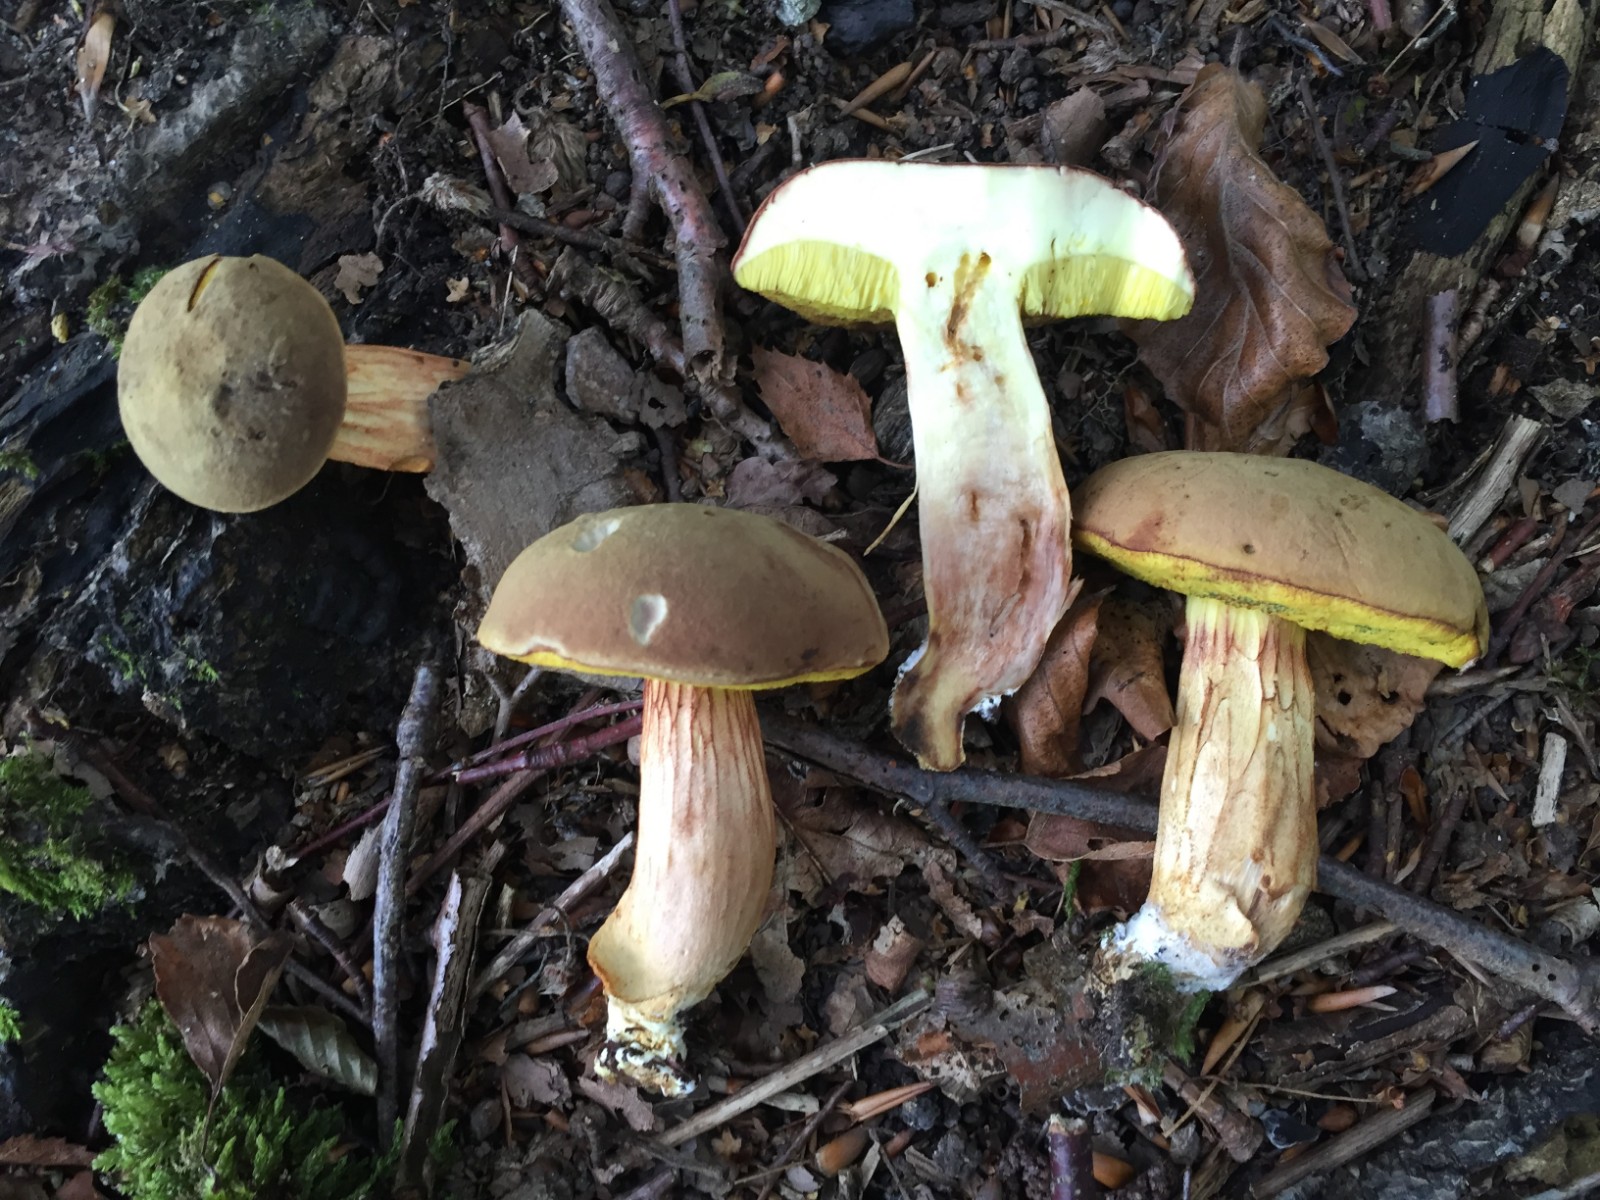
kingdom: Fungi
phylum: Basidiomycota
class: Agaricomycetes
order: Boletales
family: Boletaceae
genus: Xerocomus
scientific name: Xerocomus subtomentosus
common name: filtet rørhat
